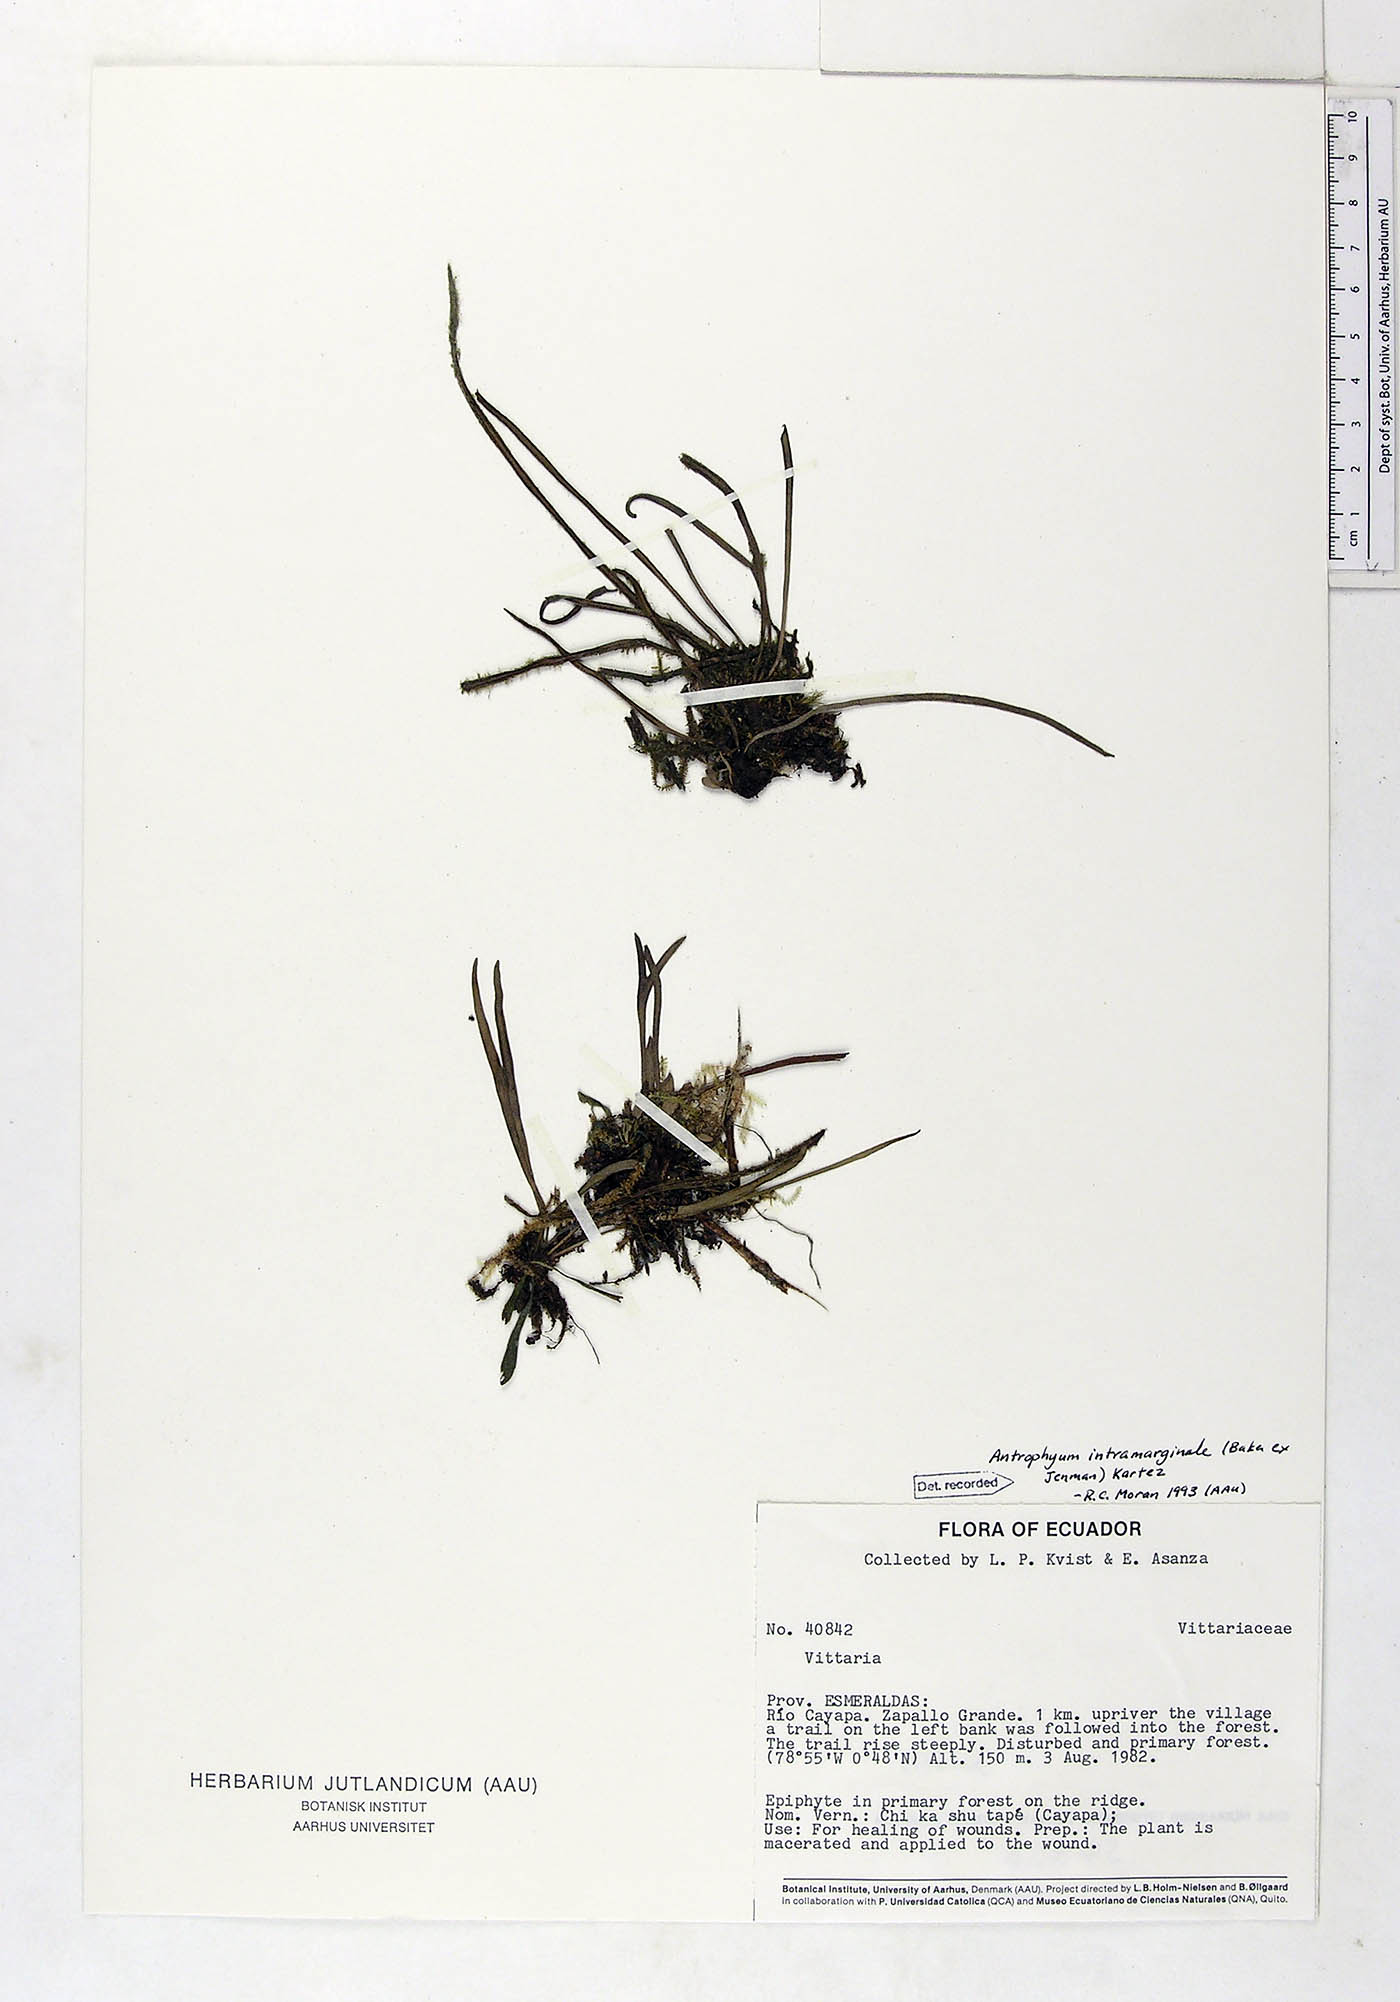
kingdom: Plantae
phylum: Tracheophyta
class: Polypodiopsida
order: Polypodiales
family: Pteridaceae
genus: Polytaenium
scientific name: Polytaenium intramarginale
